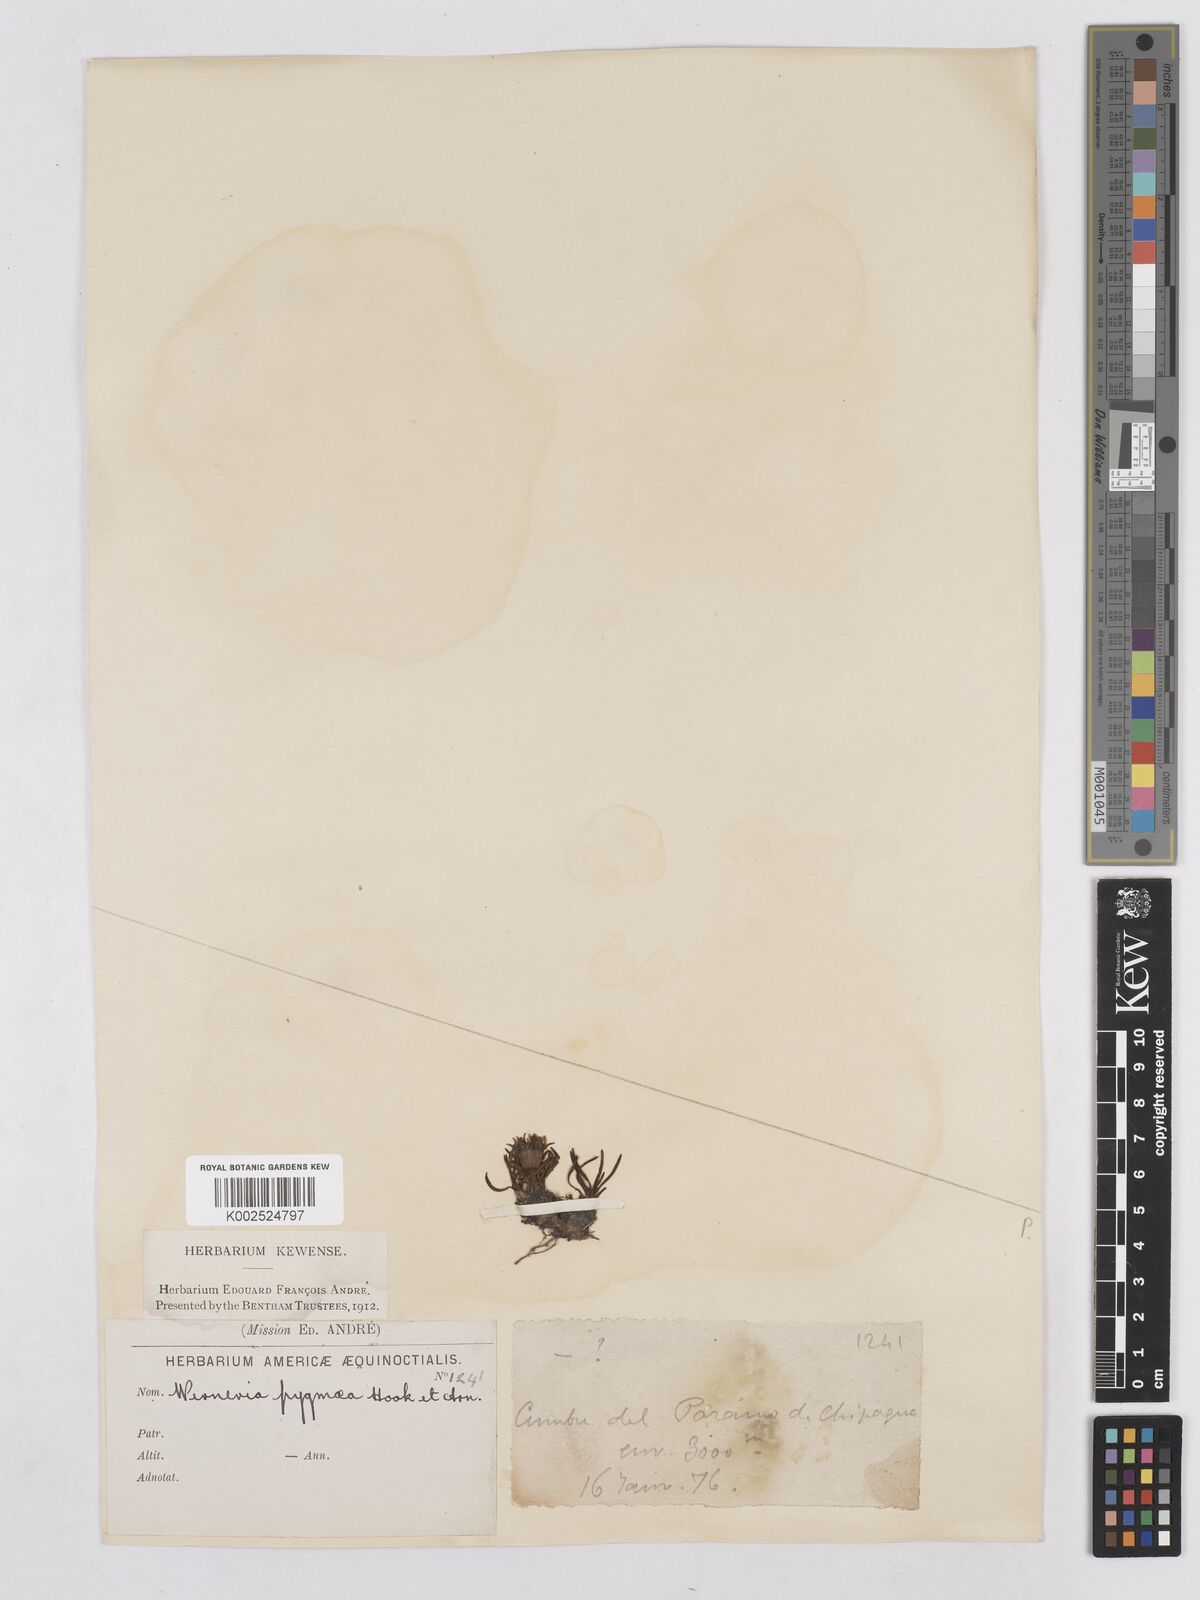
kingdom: Plantae
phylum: Tracheophyta
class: Magnoliopsida
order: Asterales
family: Asteraceae
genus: Rockhausenia
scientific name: Rockhausenia pygmaea
